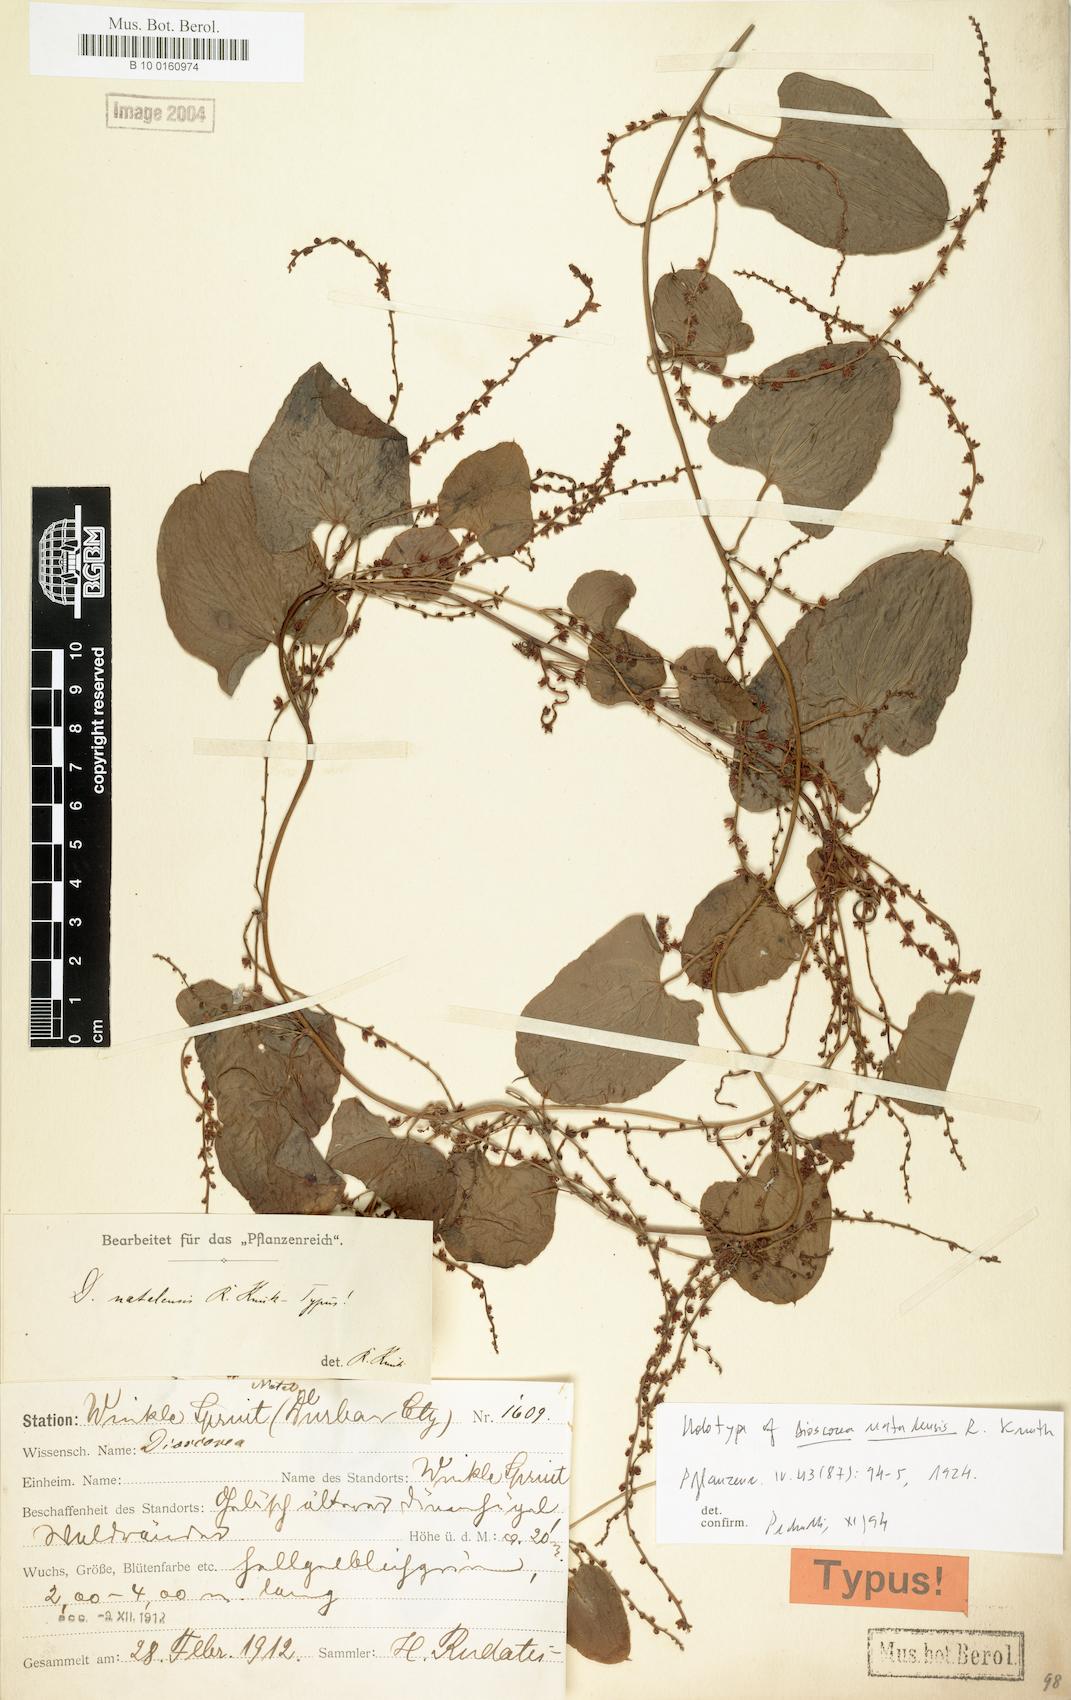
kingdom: Plantae
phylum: Tracheophyta
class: Liliopsida
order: Dioscoreales
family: Dioscoreaceae
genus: Dioscorea
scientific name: Dioscorea multiloba
